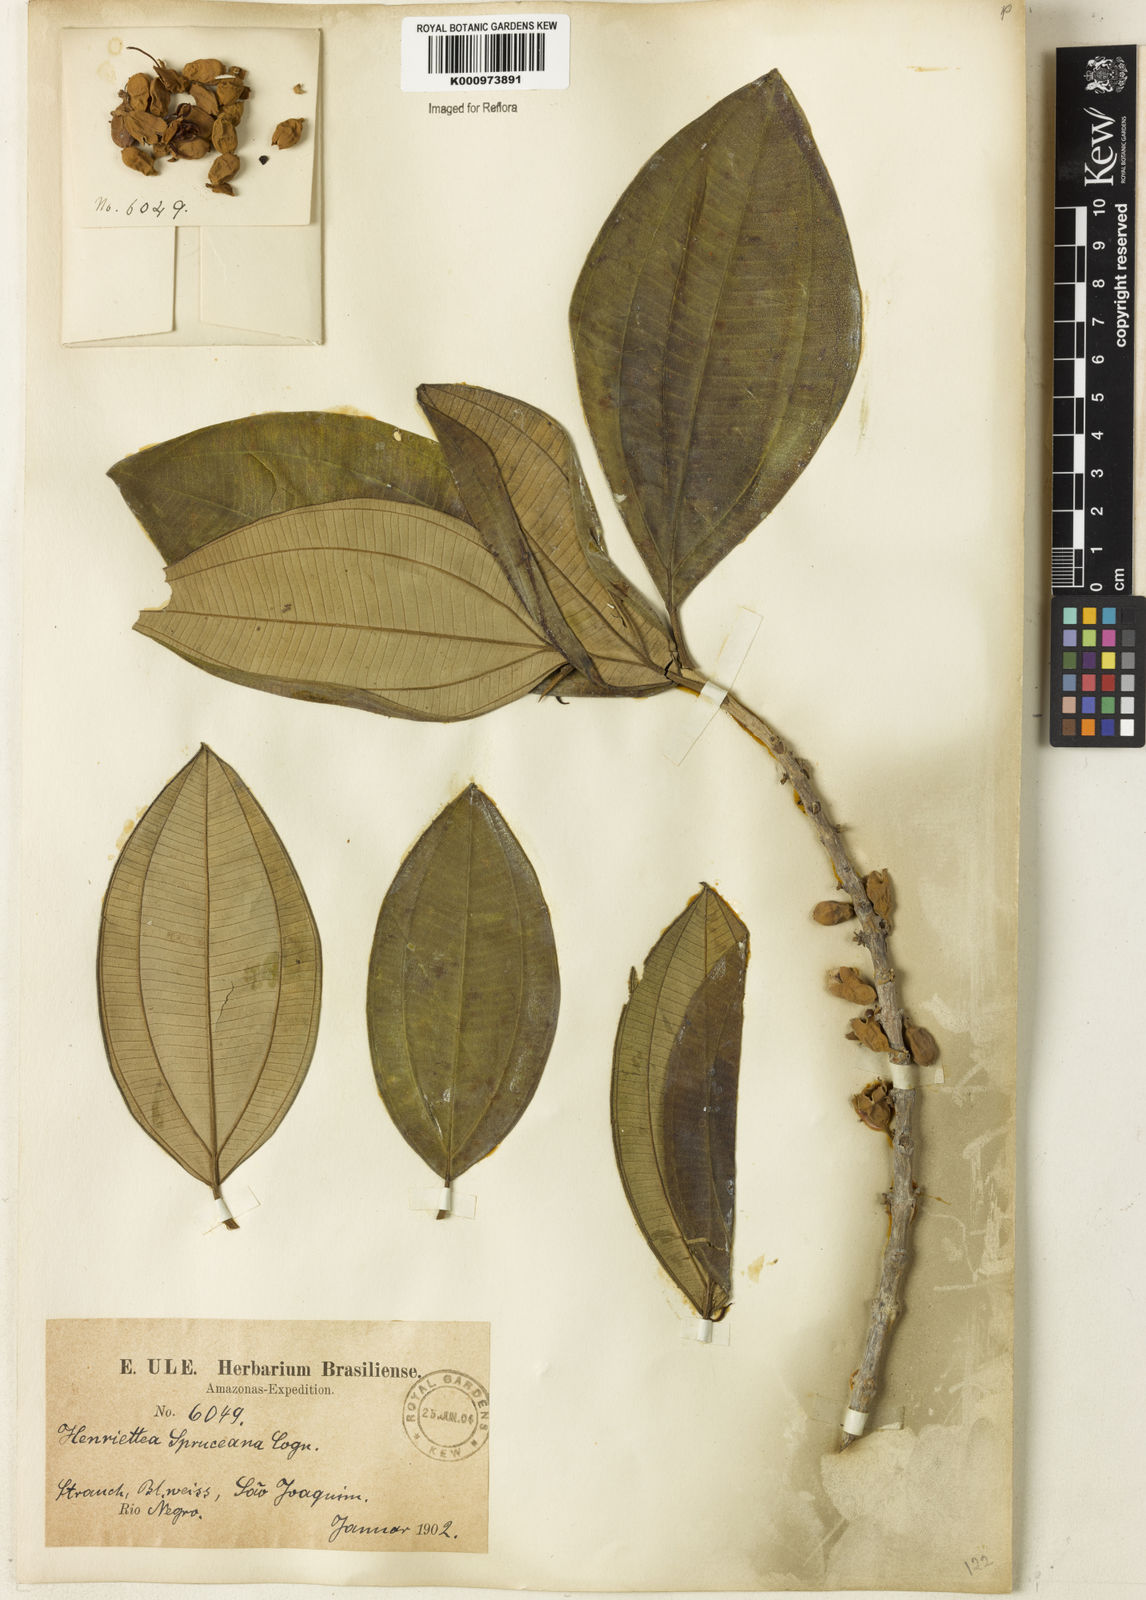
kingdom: Plantae
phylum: Tracheophyta
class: Magnoliopsida
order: Myrtales
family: Melastomataceae
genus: Henriettea
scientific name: Henriettea spruceana
